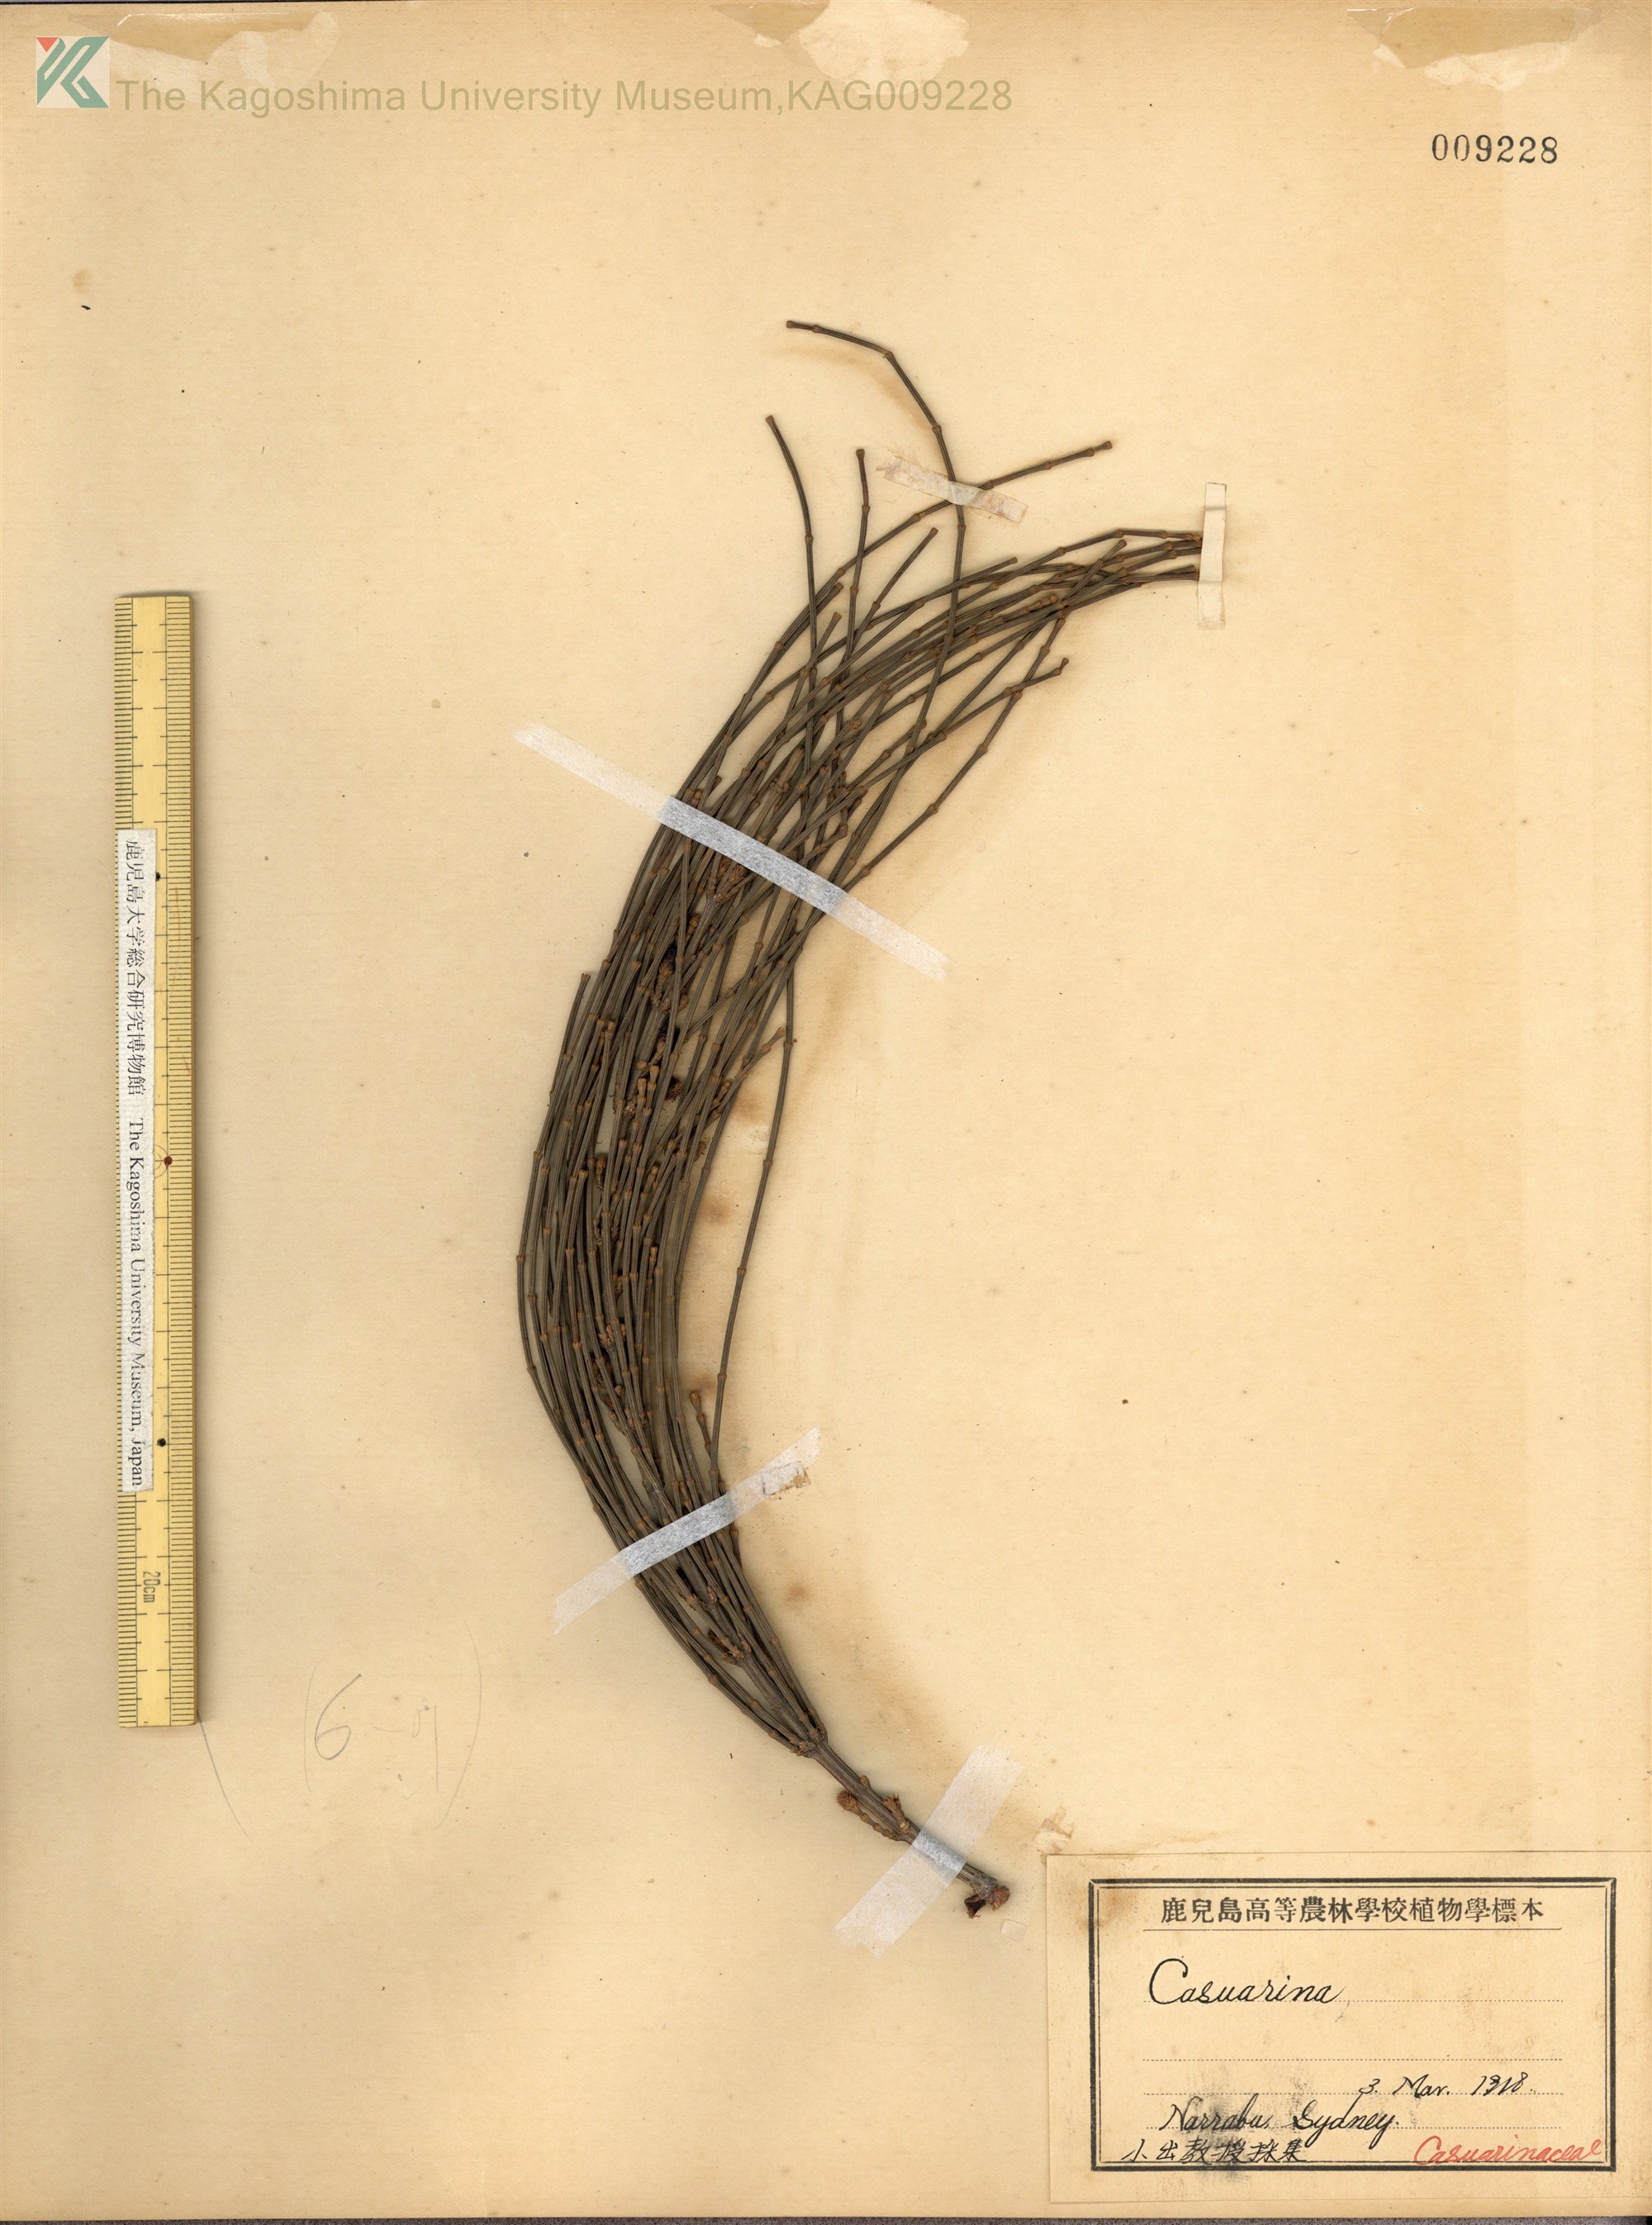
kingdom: Plantae
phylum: Tracheophyta
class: Magnoliopsida
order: Fagales
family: Casuarinaceae
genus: Casuarina
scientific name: Casuarina
